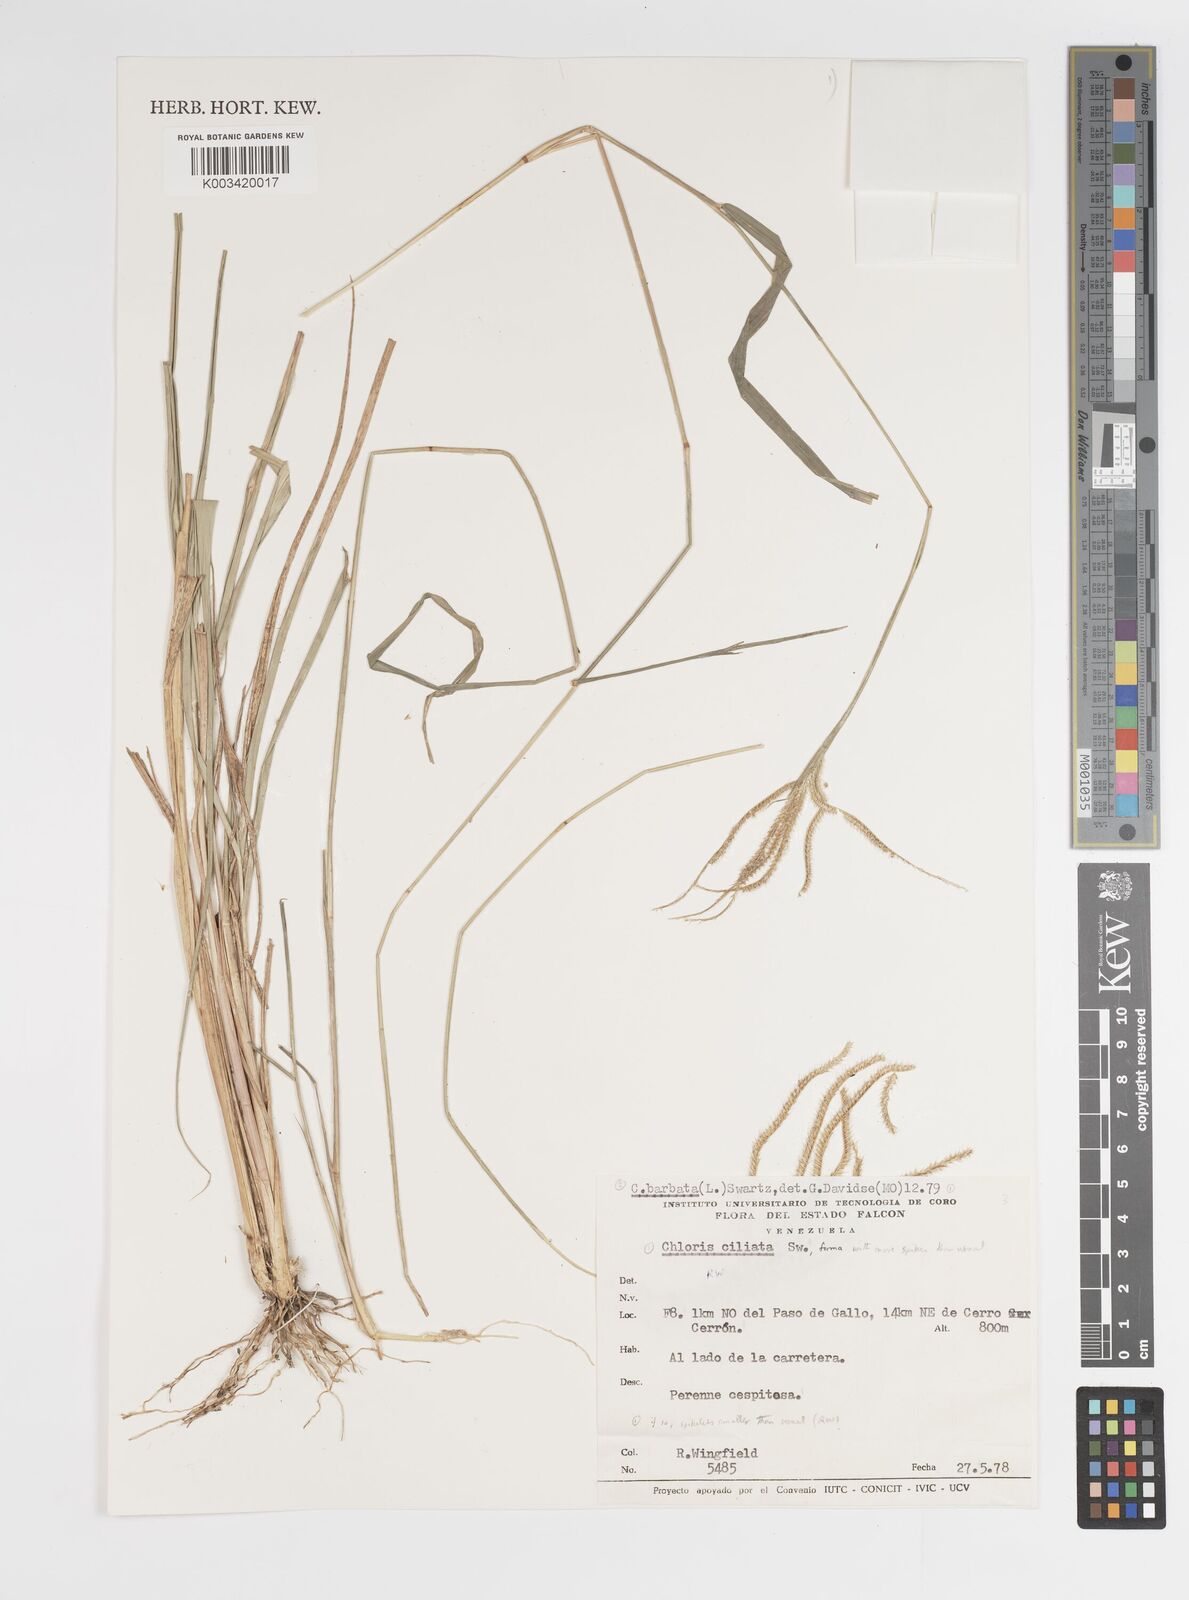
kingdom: Plantae
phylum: Tracheophyta
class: Liliopsida
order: Poales
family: Poaceae
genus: Stapfochloa
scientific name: Stapfochloa elata
